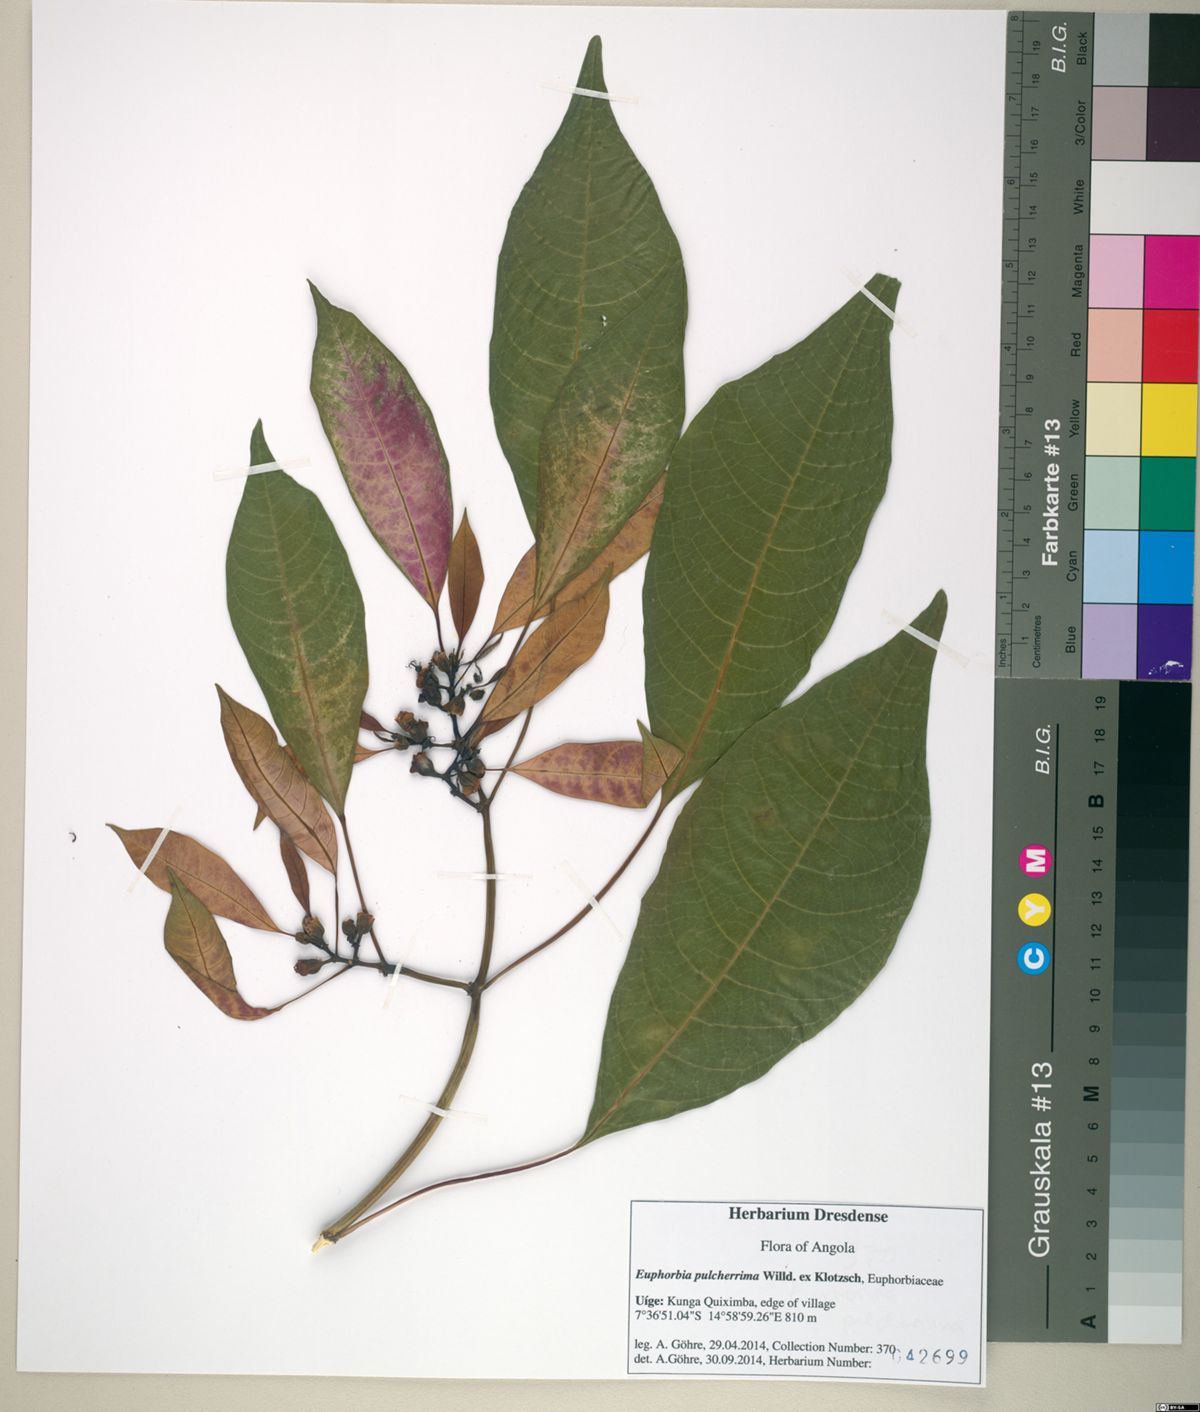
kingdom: Plantae
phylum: Tracheophyta
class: Magnoliopsida
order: Malpighiales
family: Euphorbiaceae
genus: Euphorbia
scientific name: Euphorbia pulcherrima
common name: Christmas-flower
